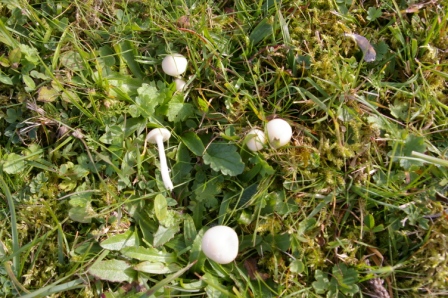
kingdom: Fungi
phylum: Basidiomycota
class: Agaricomycetes
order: Agaricales
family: Hygrophoraceae
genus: Cuphophyllus
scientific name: Cuphophyllus virgineus
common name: snehvid vokshat
